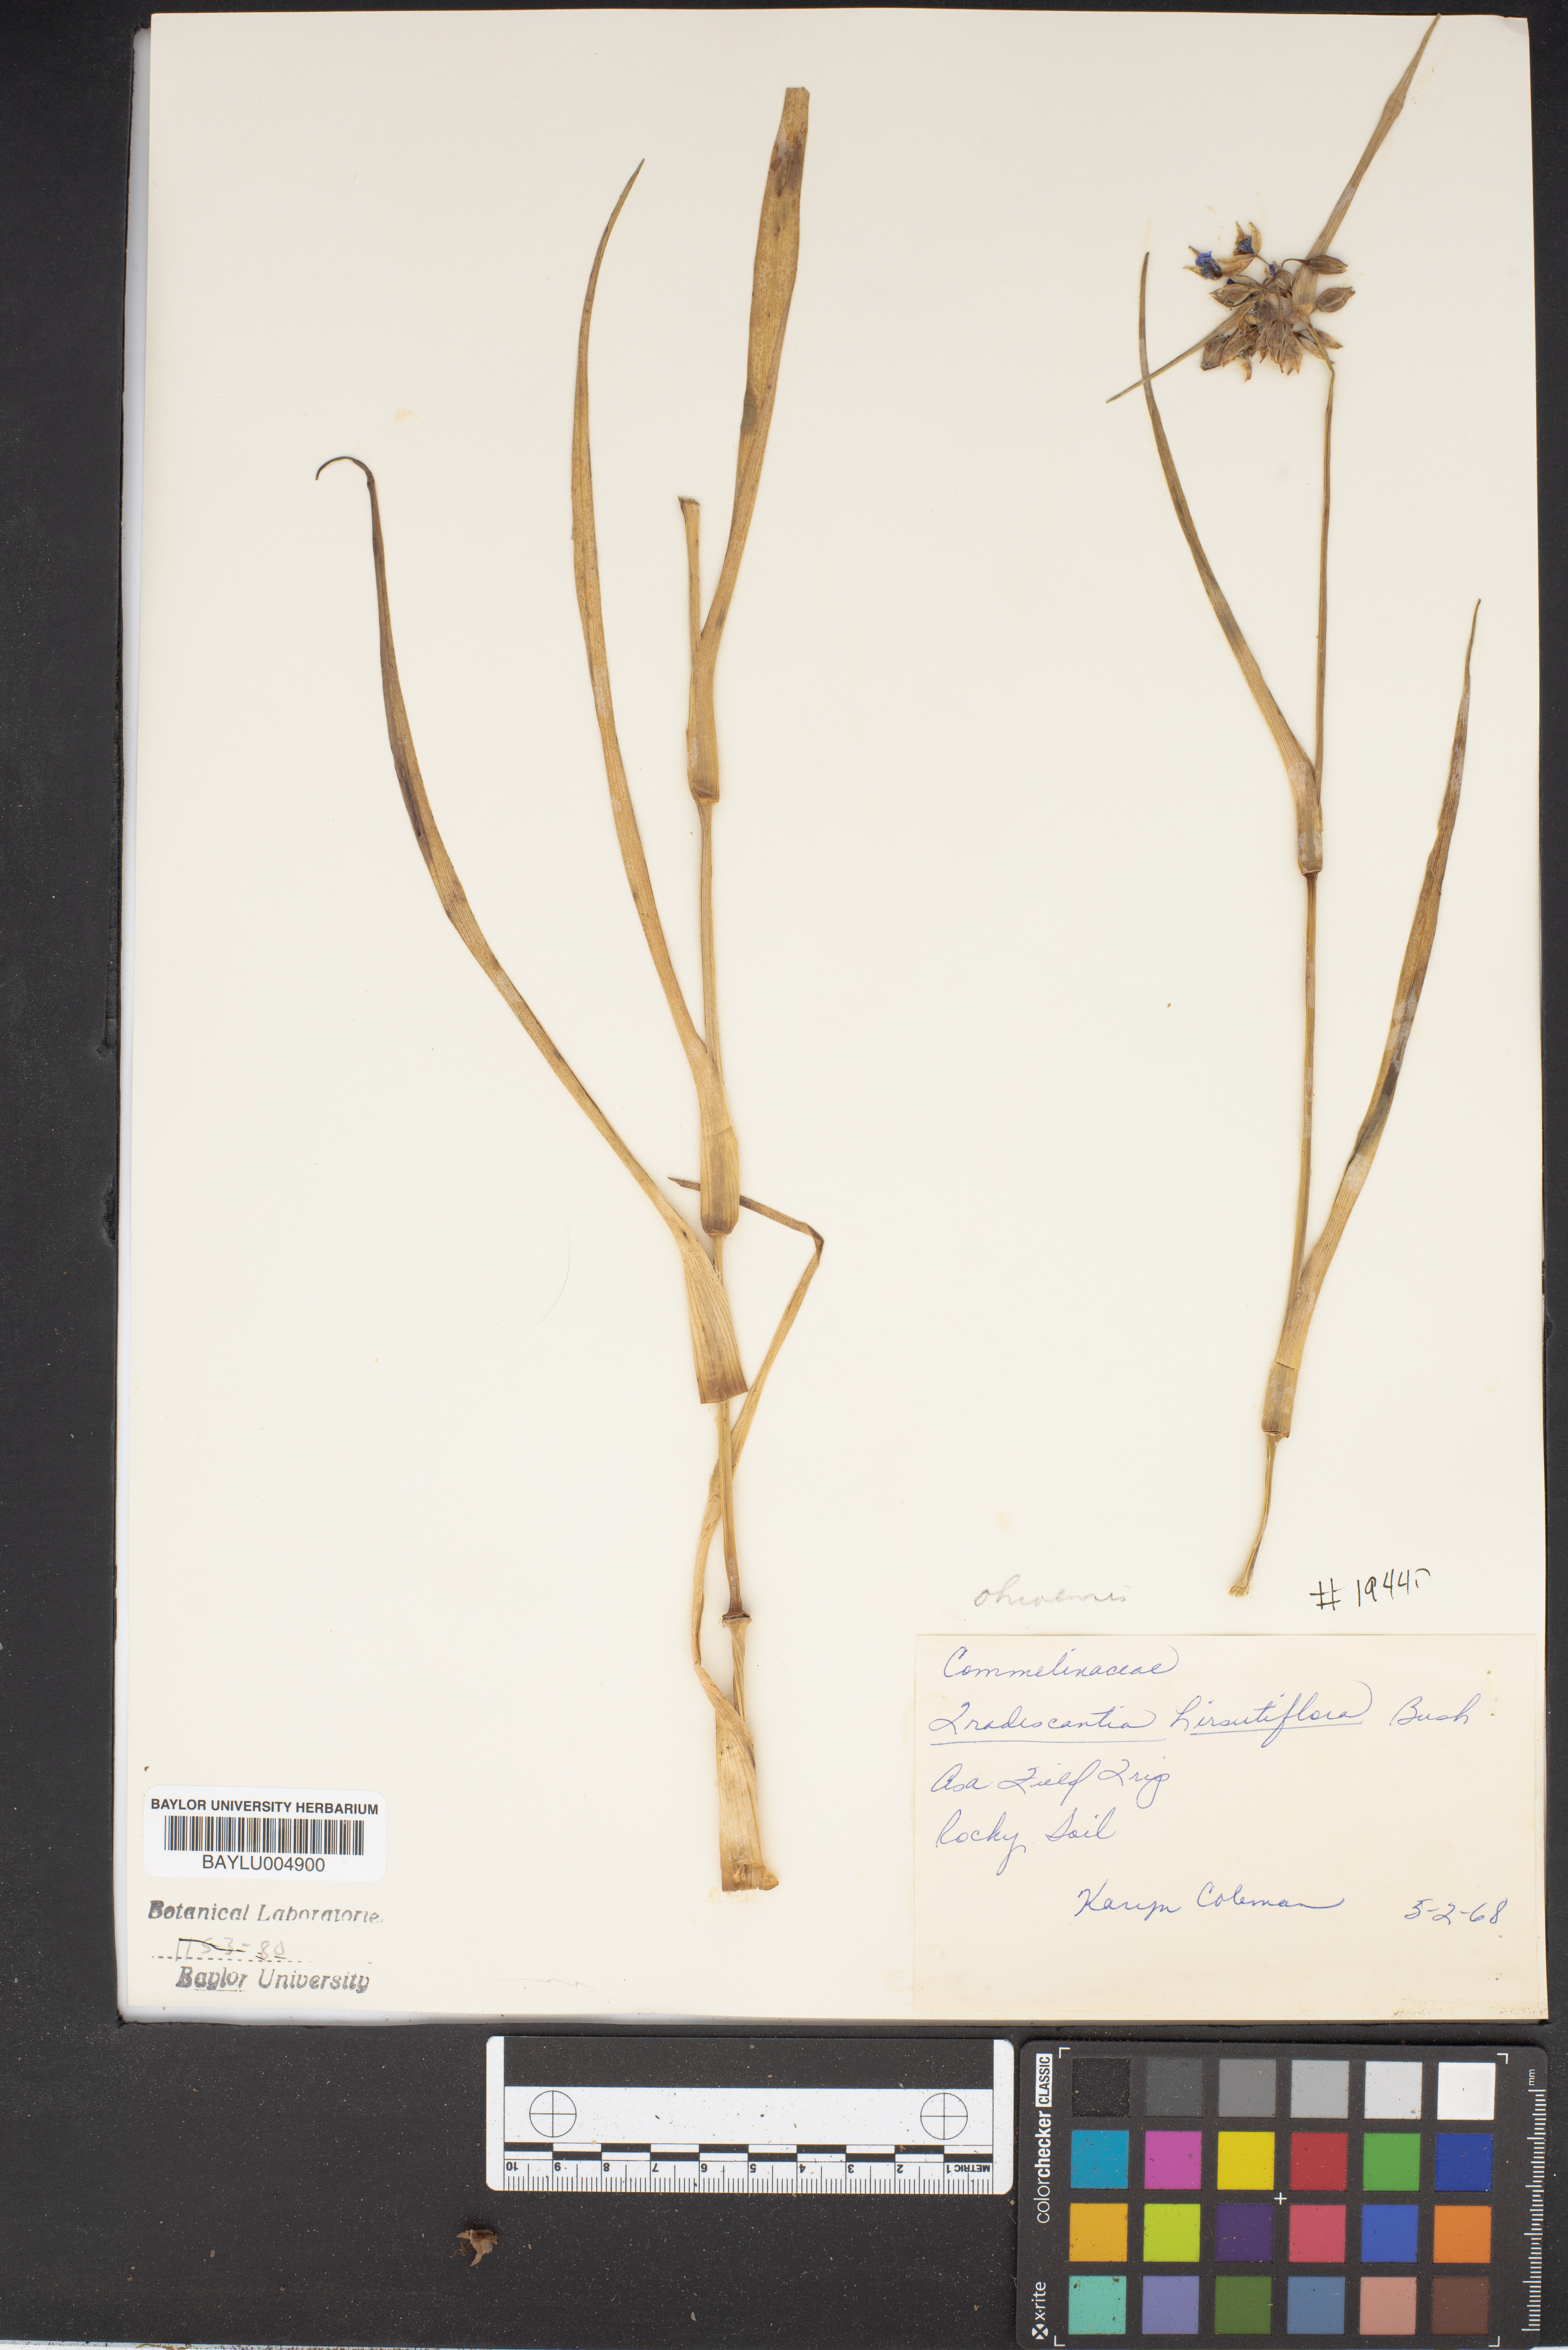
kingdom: Plantae
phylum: Tracheophyta
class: Liliopsida
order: Commelinales
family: Commelinaceae
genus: Tradescantia
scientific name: Tradescantia hirsutiflora
